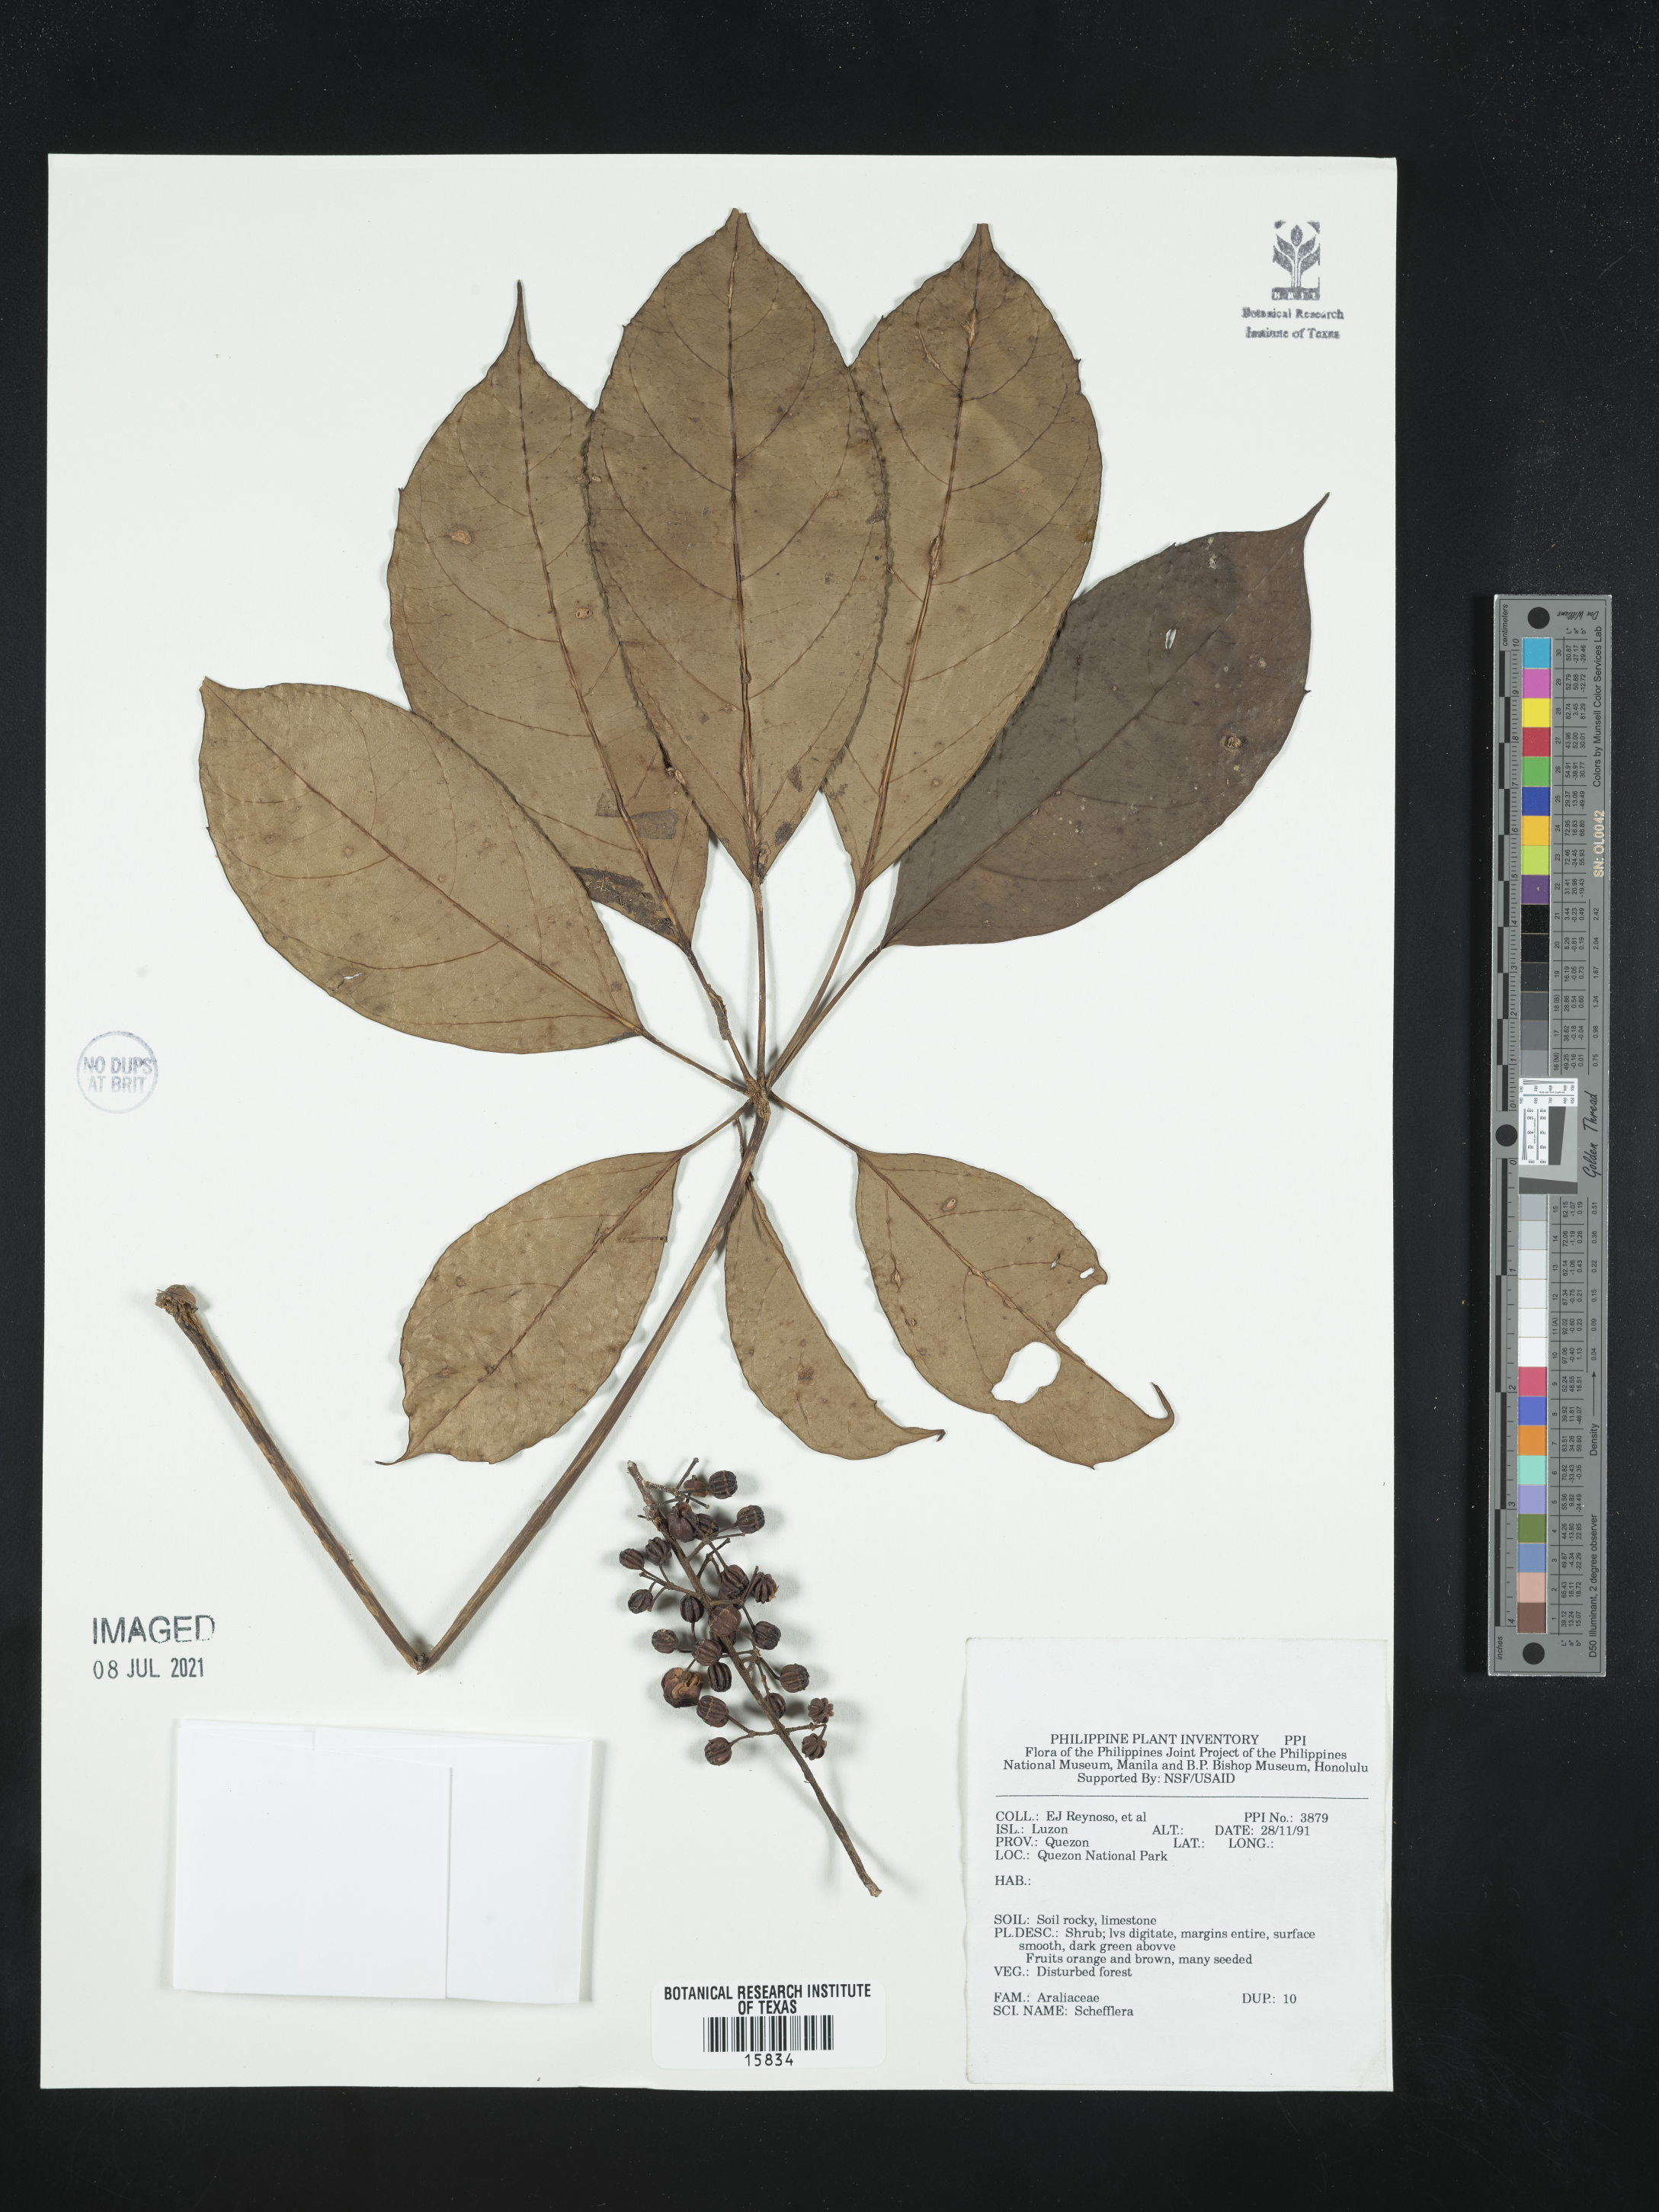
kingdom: Plantae
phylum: Tracheophyta
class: Magnoliopsida
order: Apiales
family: Araliaceae
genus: Schefflera
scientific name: Schefflera
